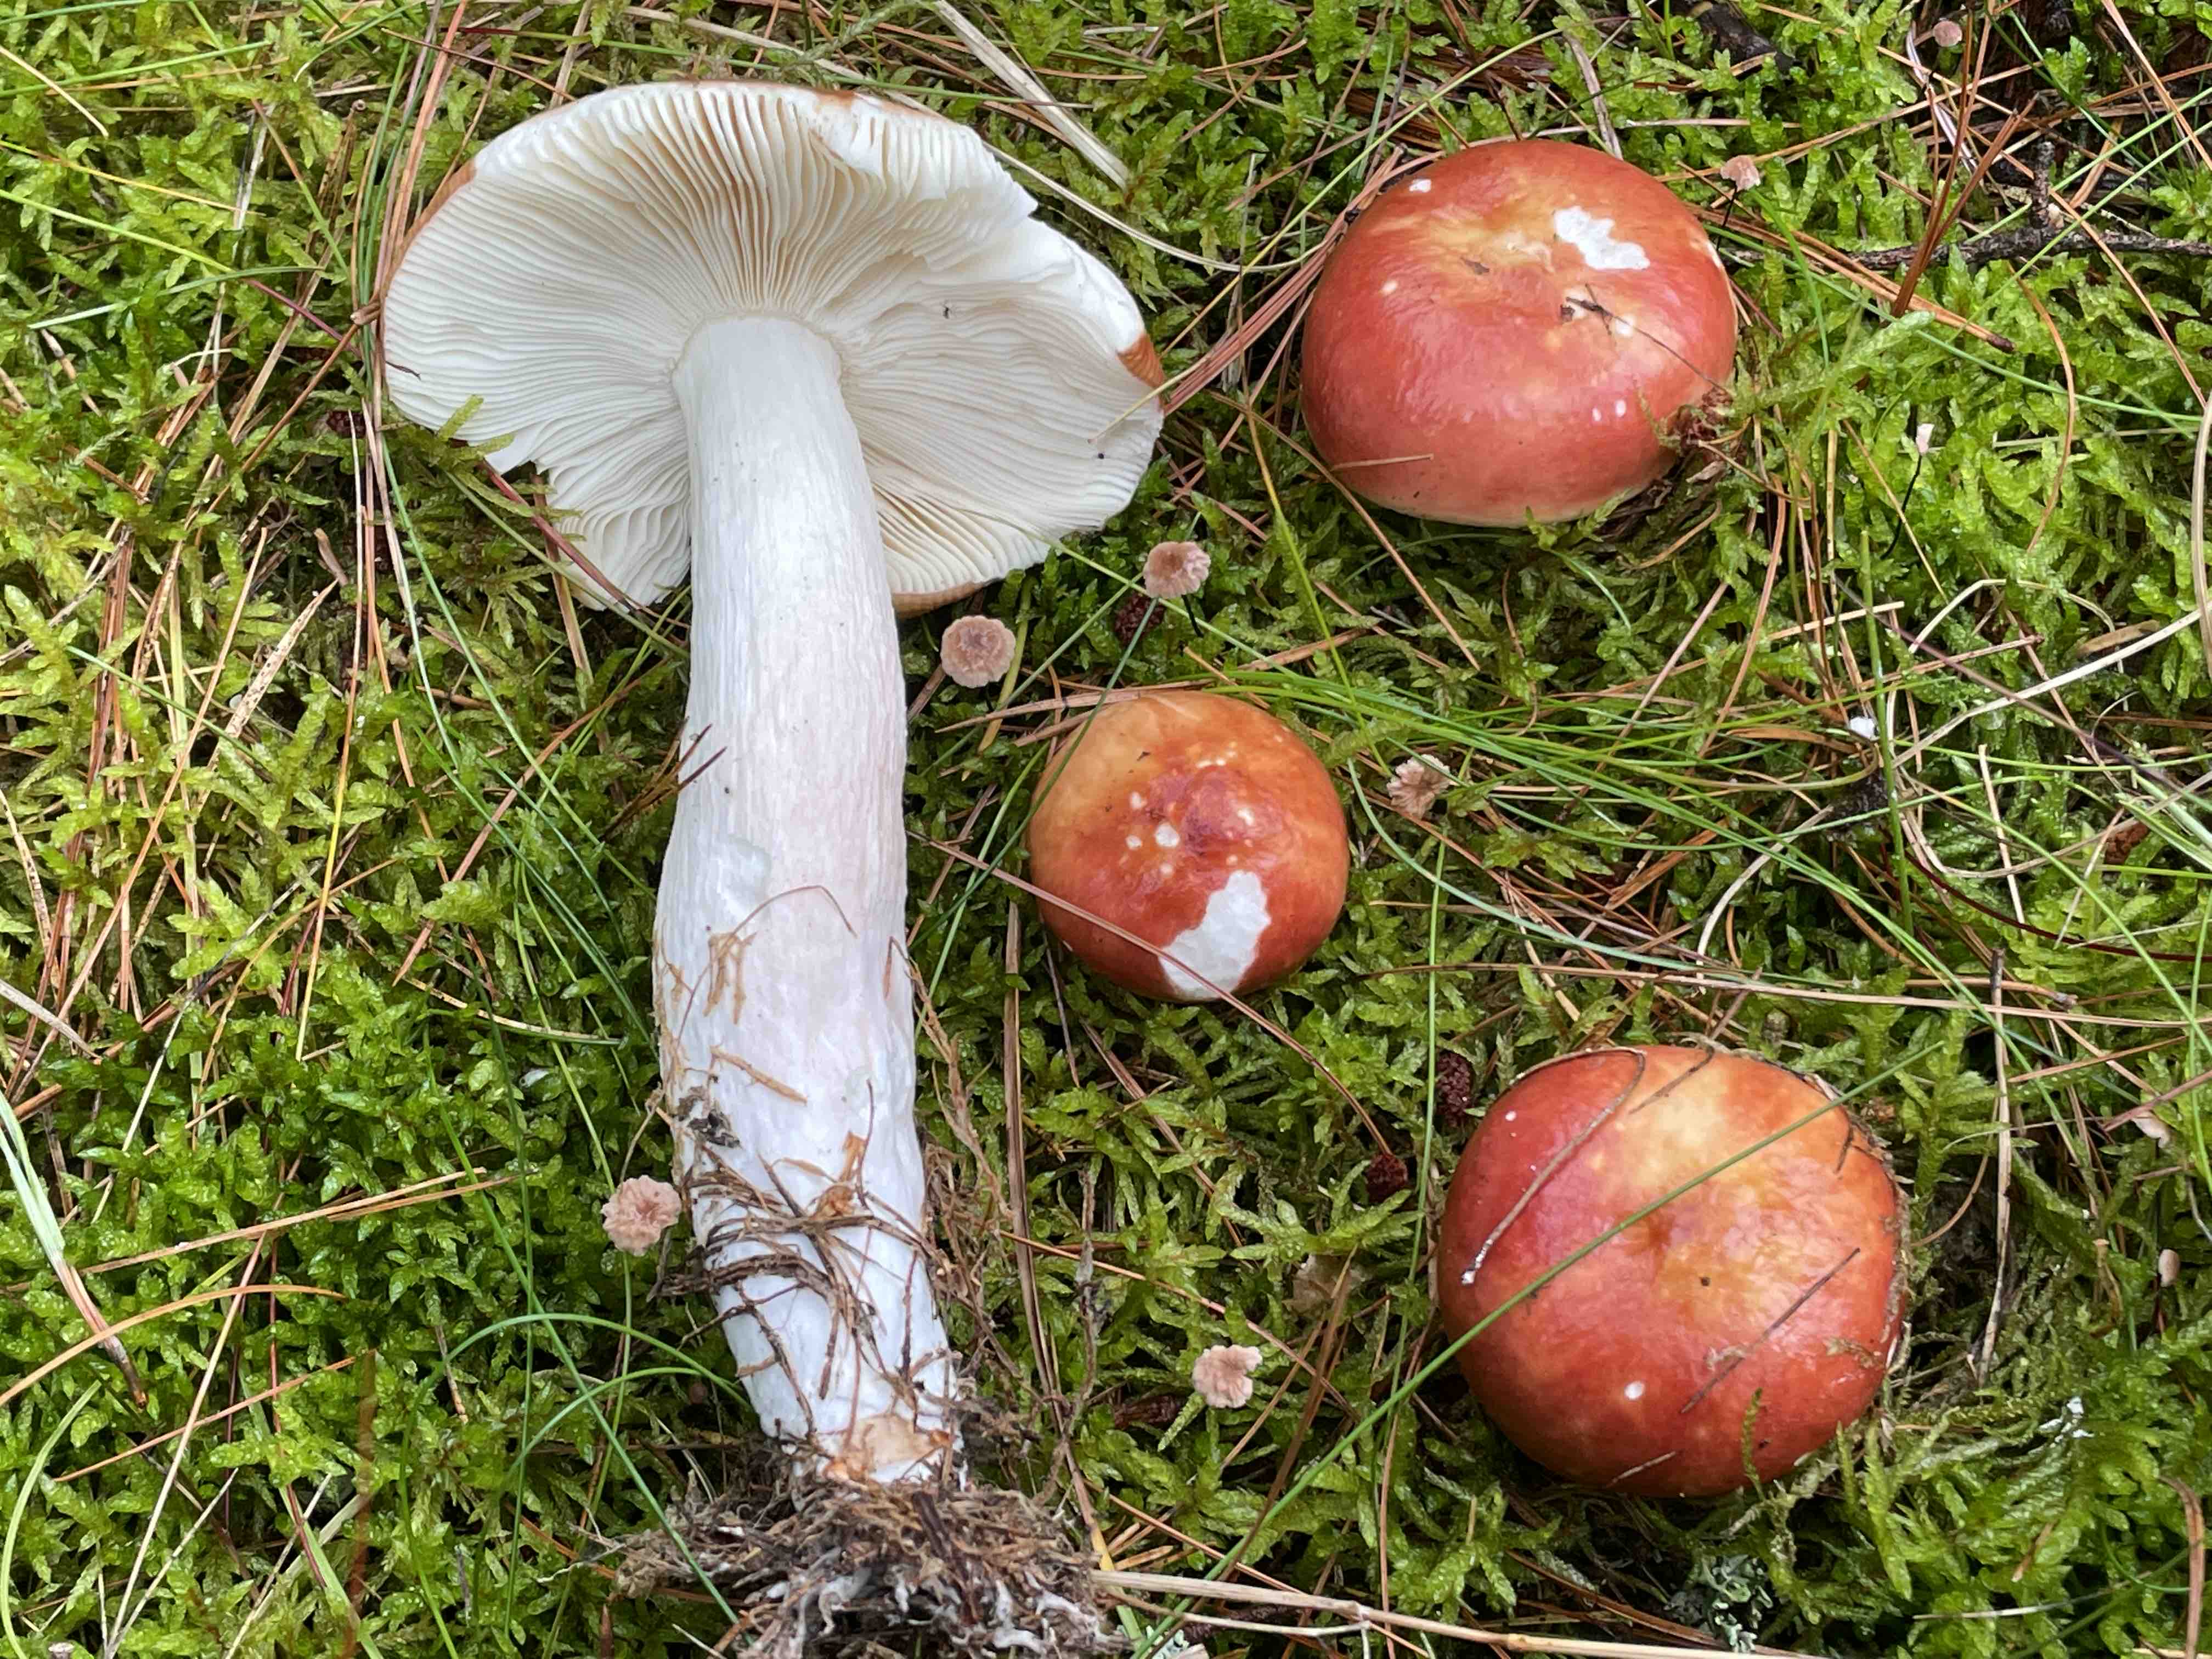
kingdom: Fungi
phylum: Basidiomycota
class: Agaricomycetes
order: Russulales
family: Russulaceae
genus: Russula
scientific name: Russula paludosa
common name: prægtig skørhat
